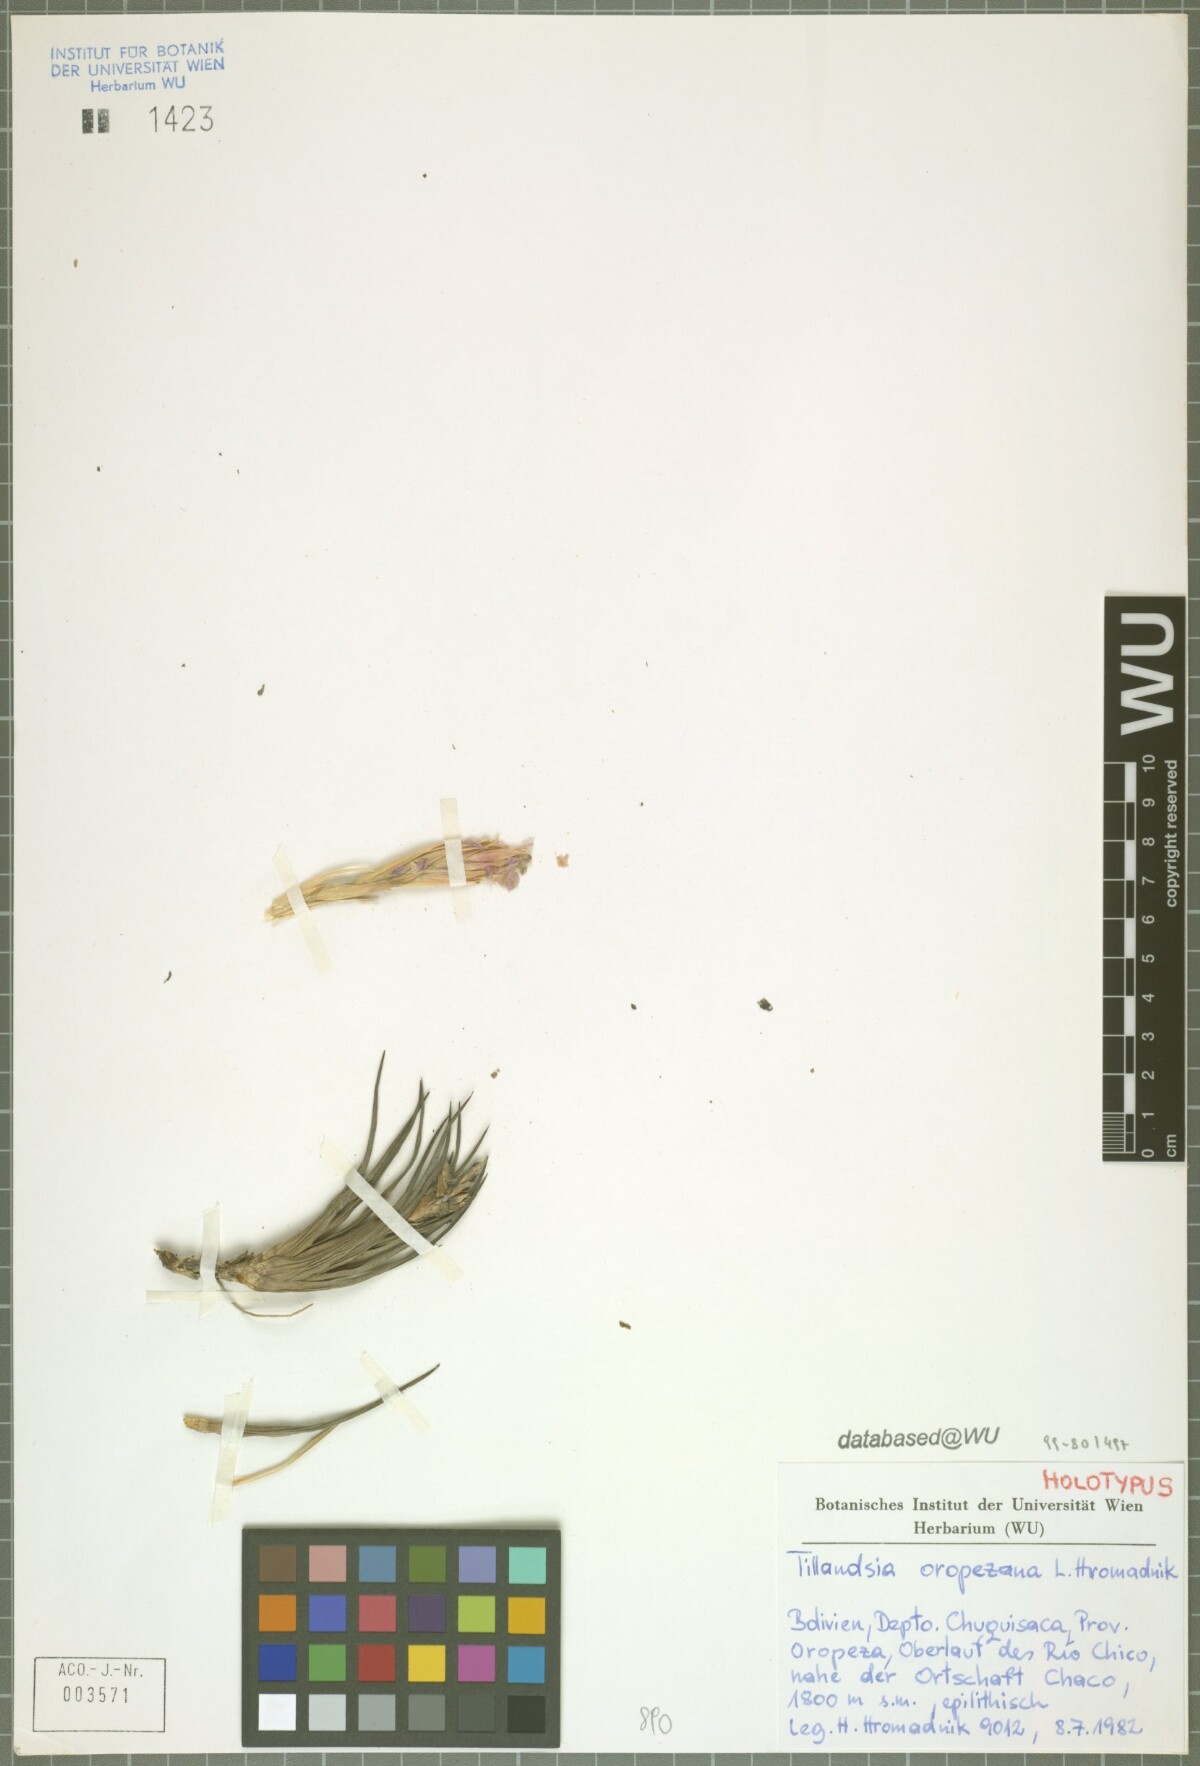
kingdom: Plantae
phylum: Tracheophyta
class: Liliopsida
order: Poales
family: Bromeliaceae
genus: Tillandsia
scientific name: Tillandsia oropezana
